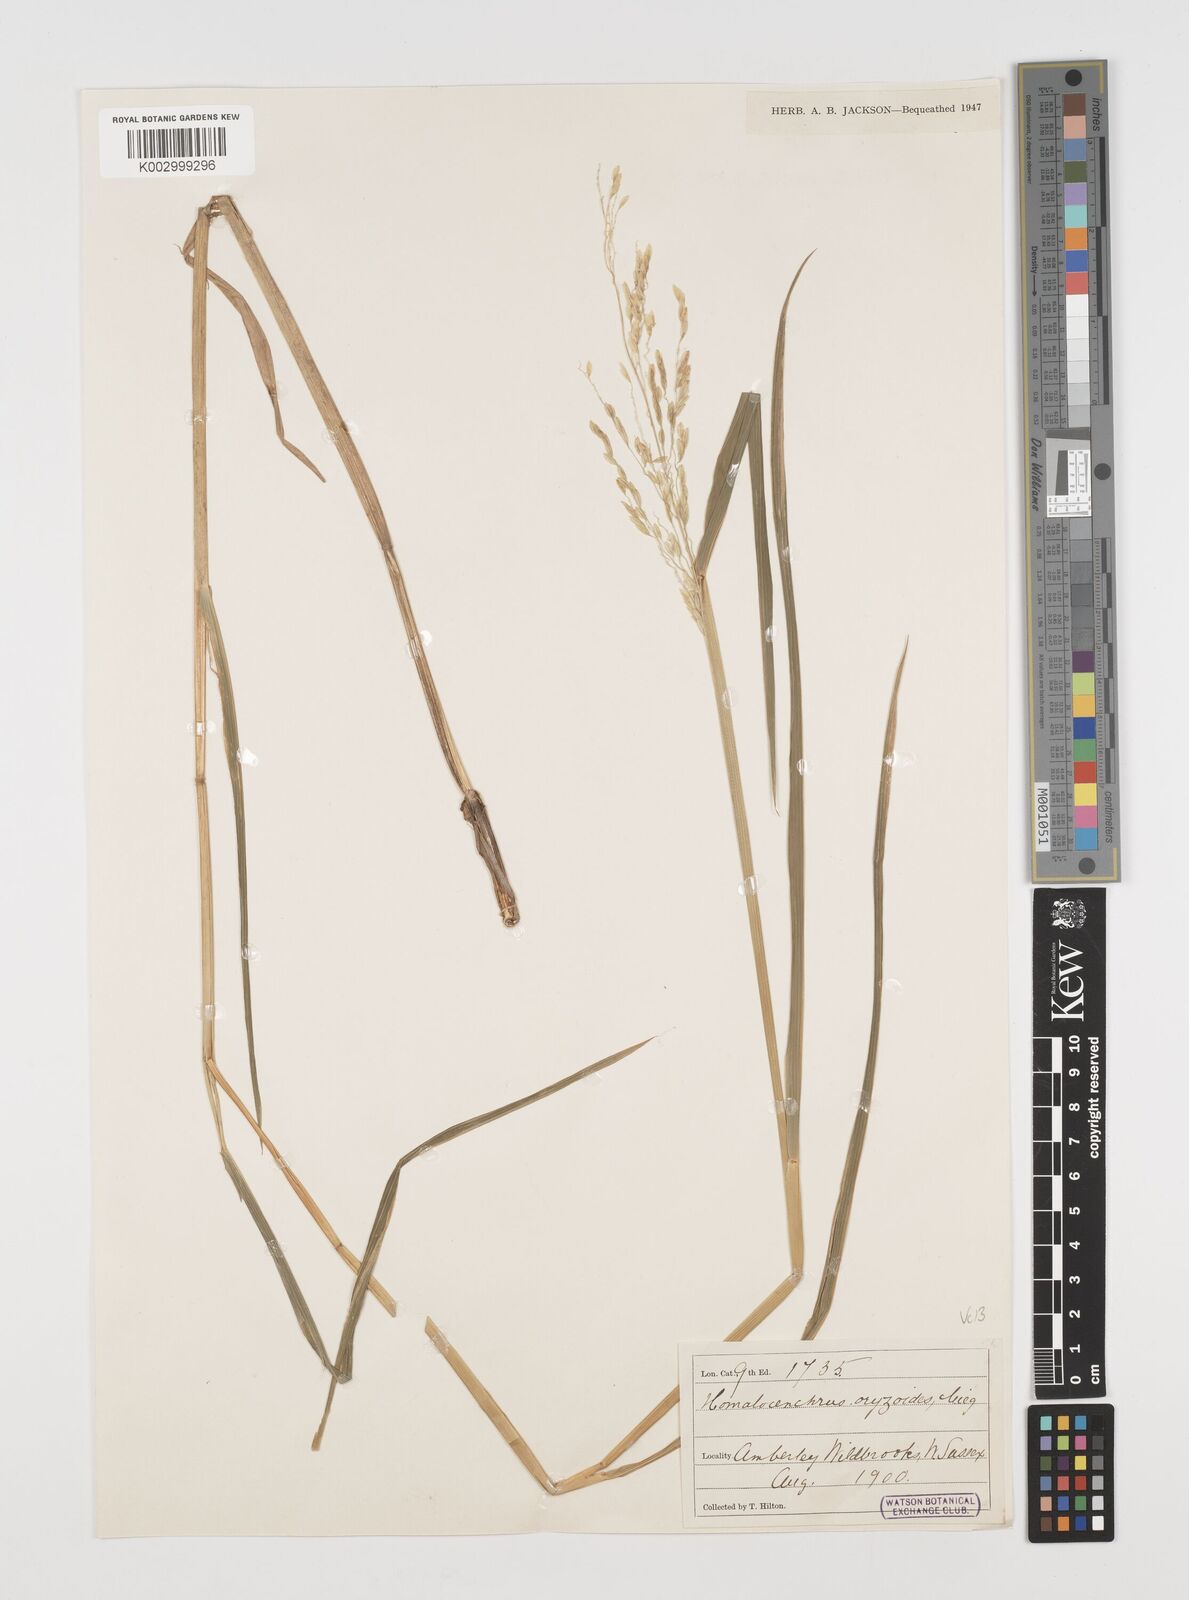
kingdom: Plantae
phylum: Tracheophyta
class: Liliopsida
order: Poales
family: Poaceae
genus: Leersia
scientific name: Leersia oryzoides
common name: Cut-grass
